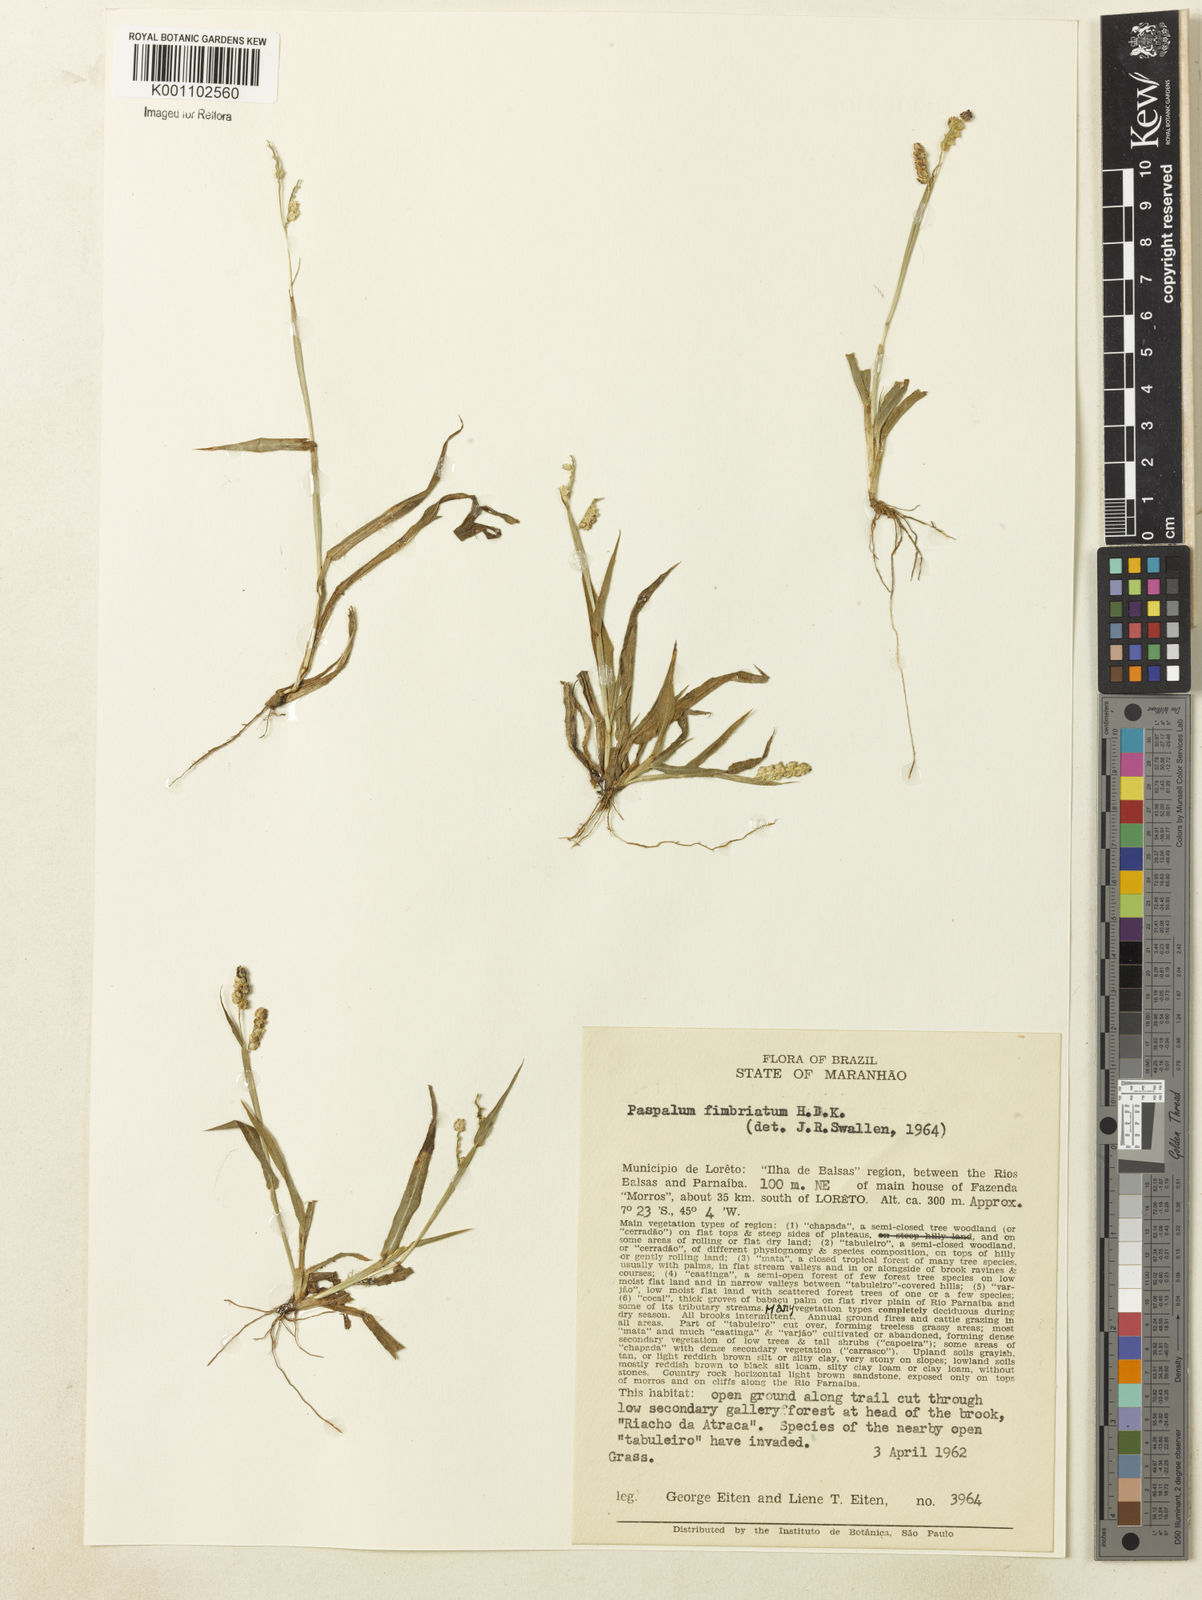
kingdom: Plantae
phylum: Tracheophyta
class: Liliopsida
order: Poales
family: Poaceae
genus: Paspalum
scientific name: Paspalum fimbriatum
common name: Panama crowngrass
